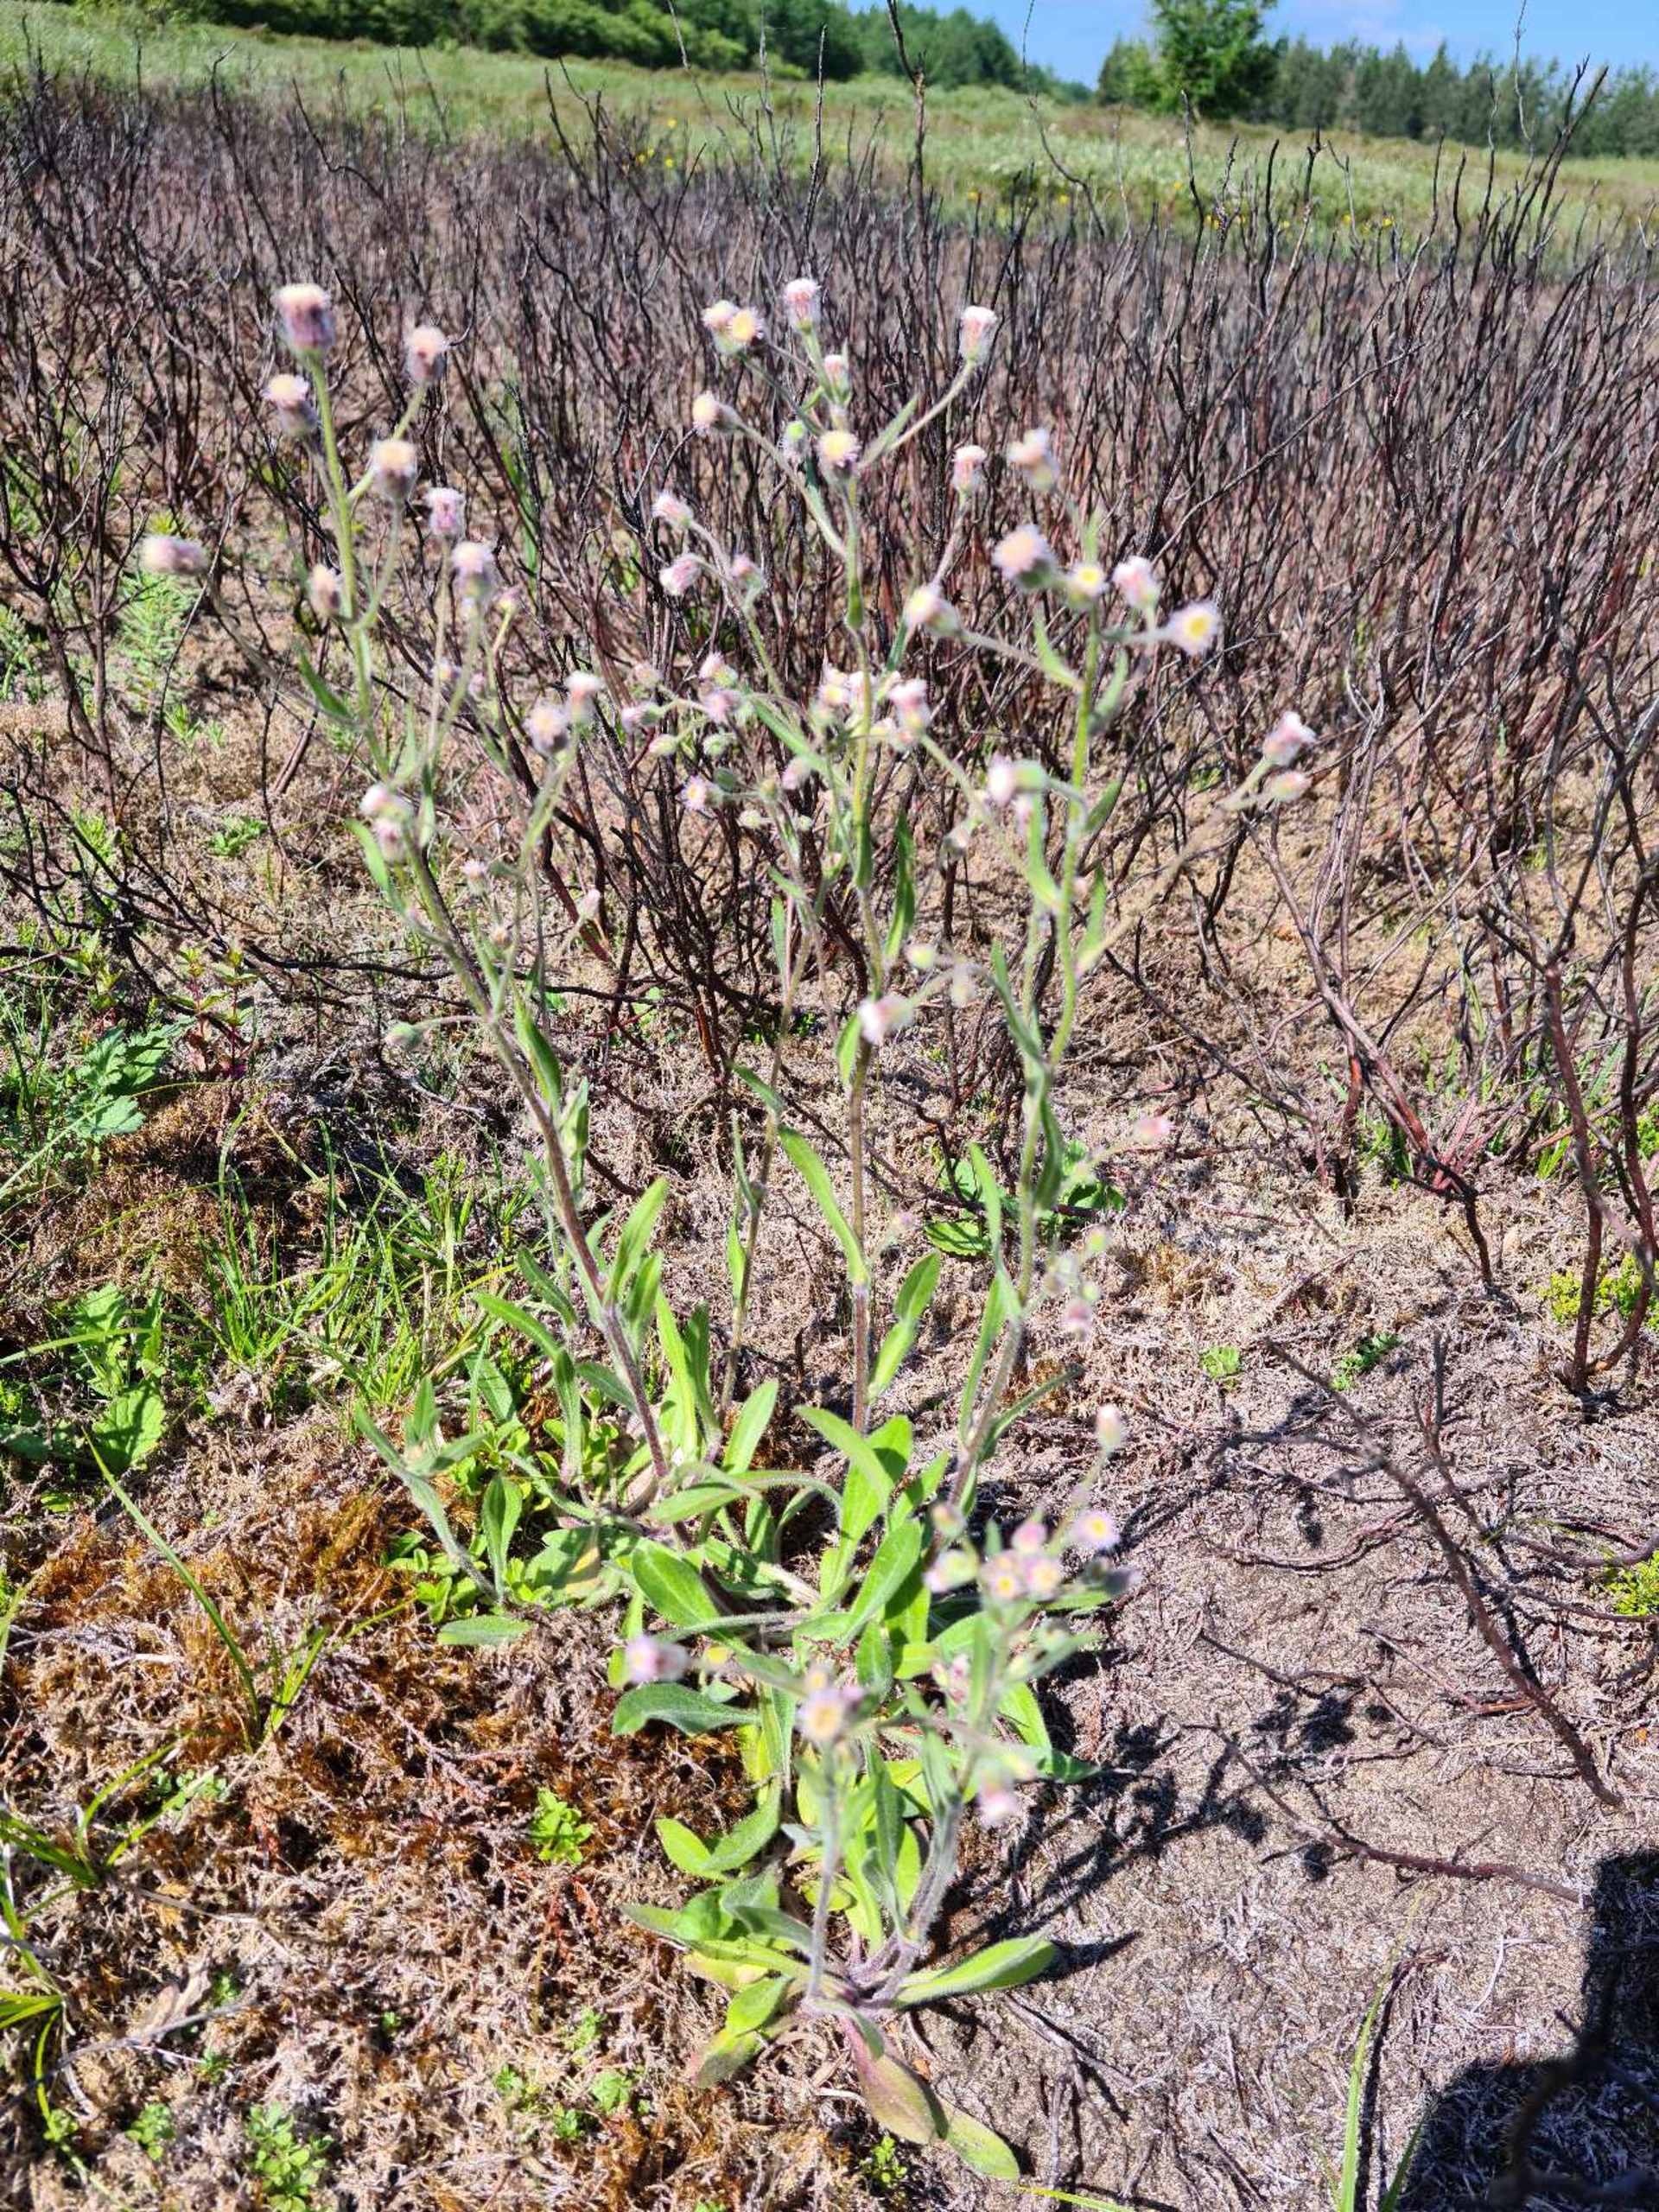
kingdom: Plantae
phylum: Tracheophyta
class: Magnoliopsida
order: Asterales
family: Asteraceae
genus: Erigeron
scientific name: Erigeron acris
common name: Bitter bakkestjerne
